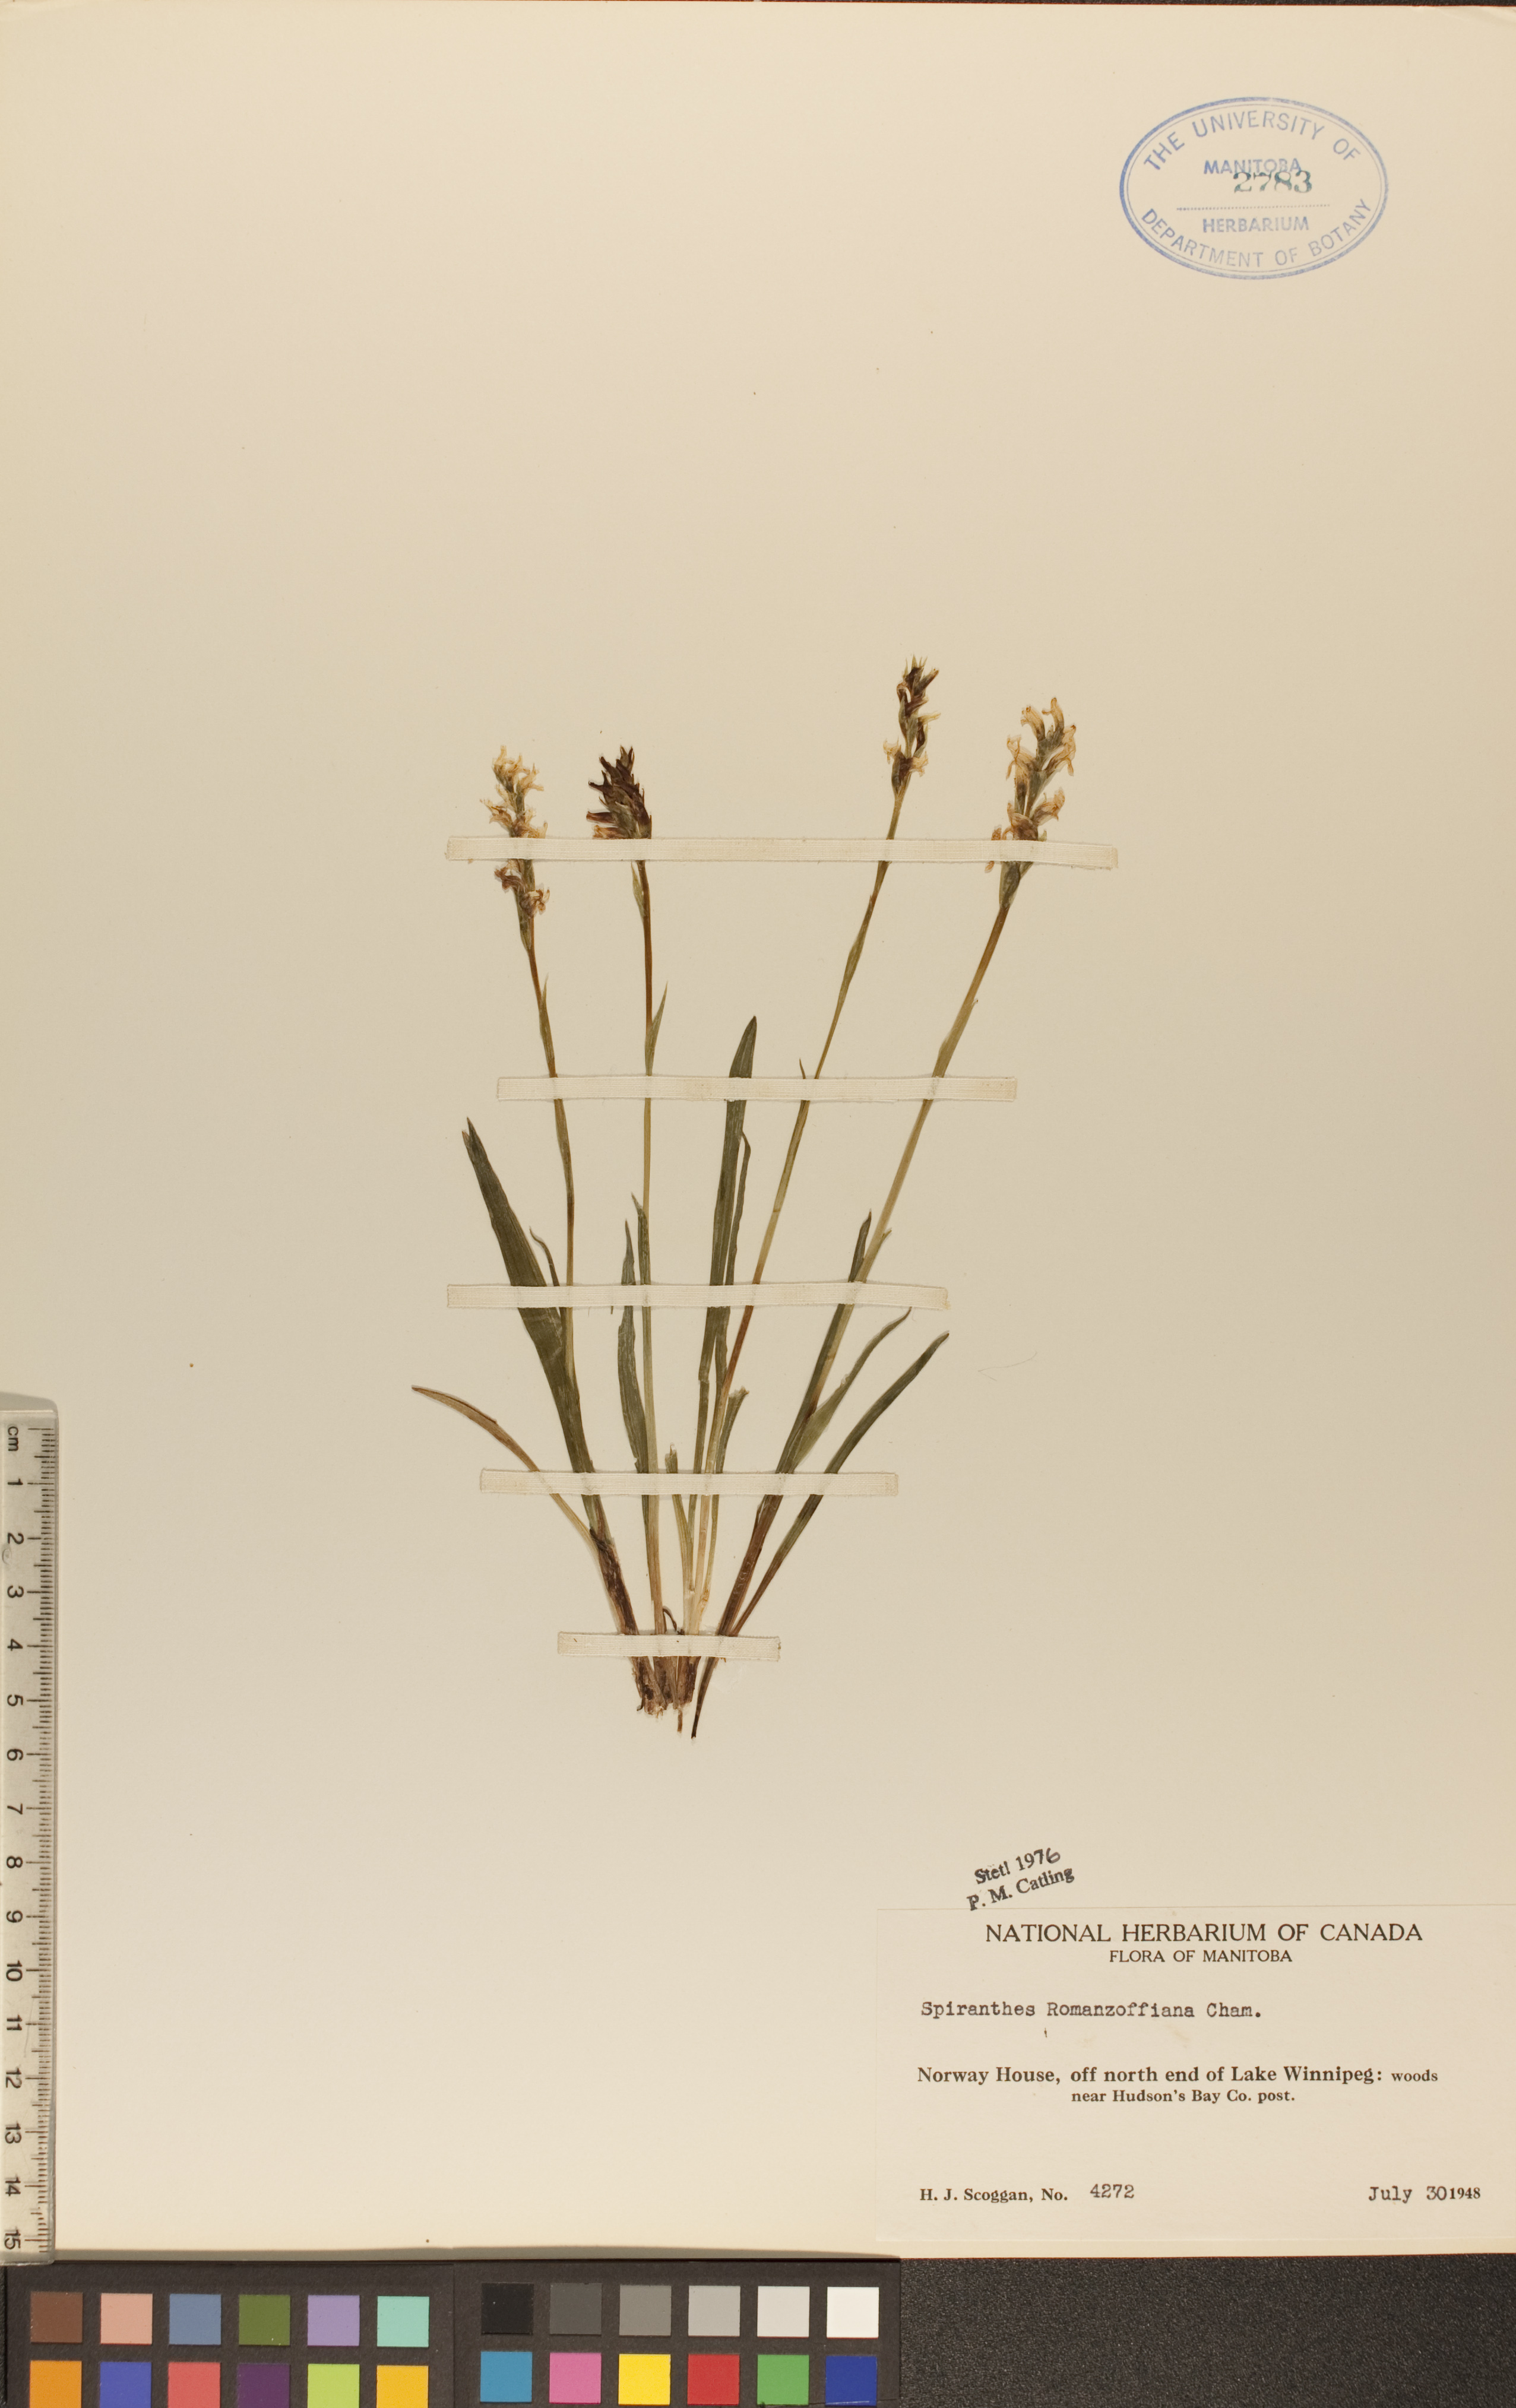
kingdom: Plantae
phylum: Tracheophyta
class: Liliopsida
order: Asparagales
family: Orchidaceae
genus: Spiranthes
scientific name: Spiranthes romanzoffiana
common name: Irish lady's-tresses
